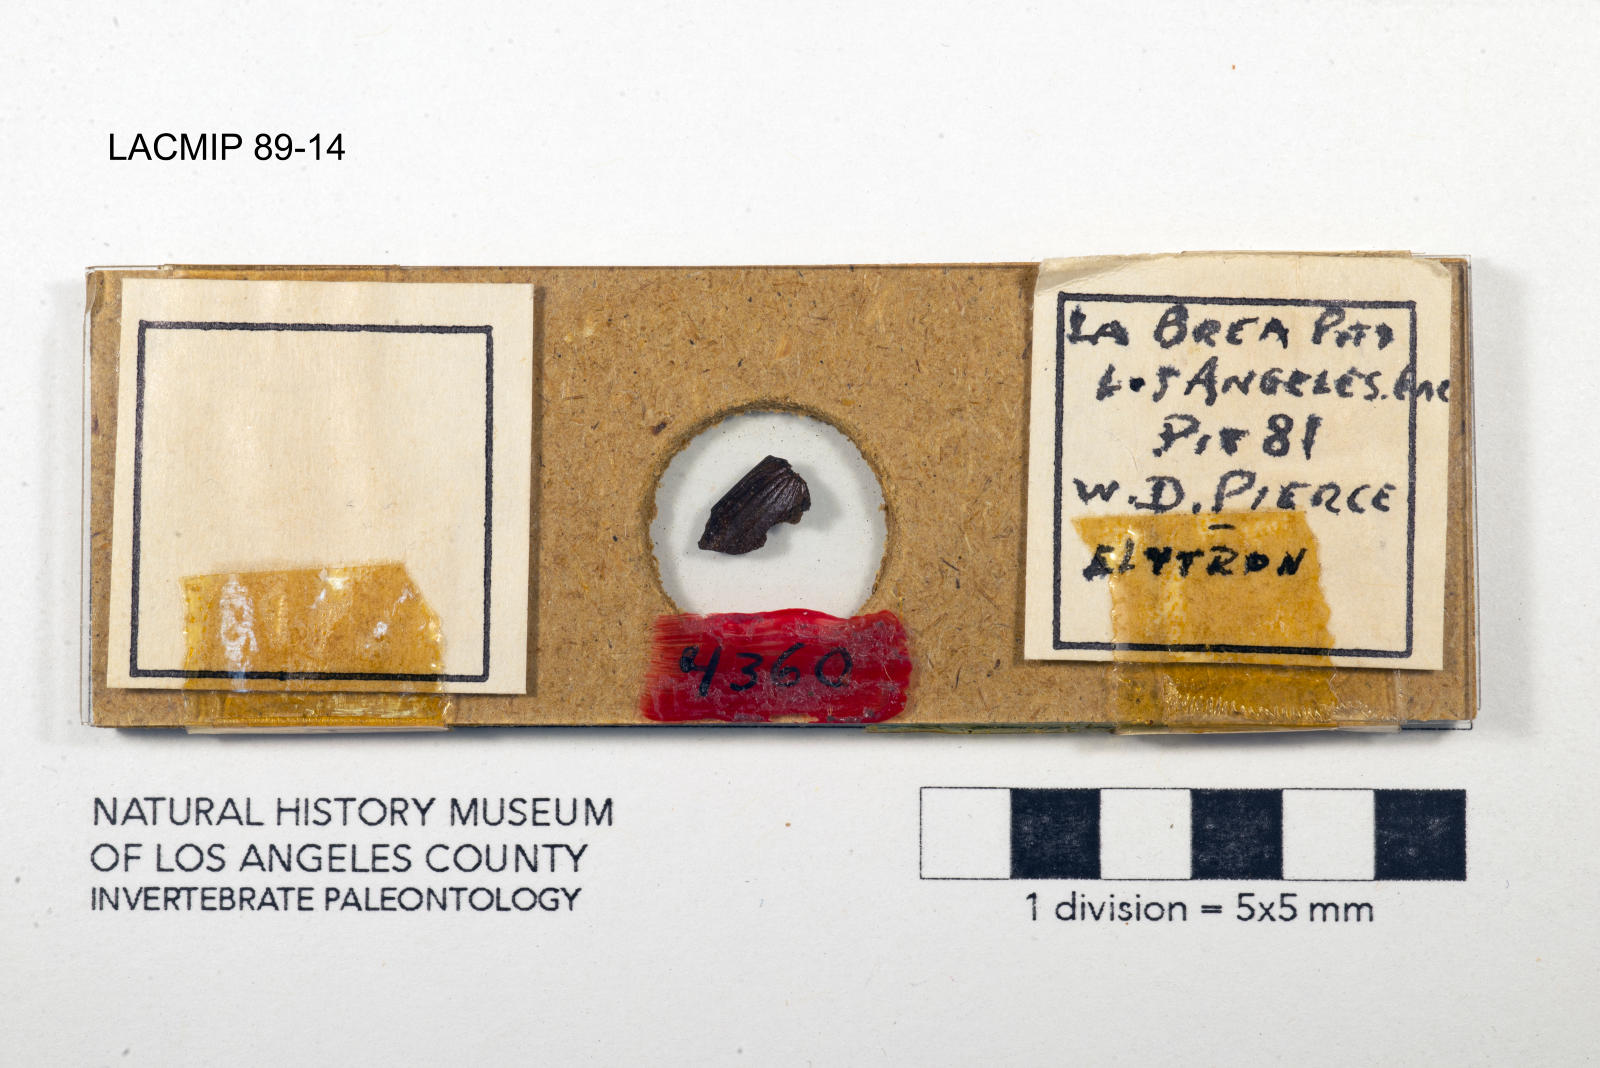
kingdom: Animalia
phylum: Arthropoda
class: Insecta
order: Coleoptera
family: Staphylinidae
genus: Nicrophorus
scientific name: Nicrophorus marginatus
